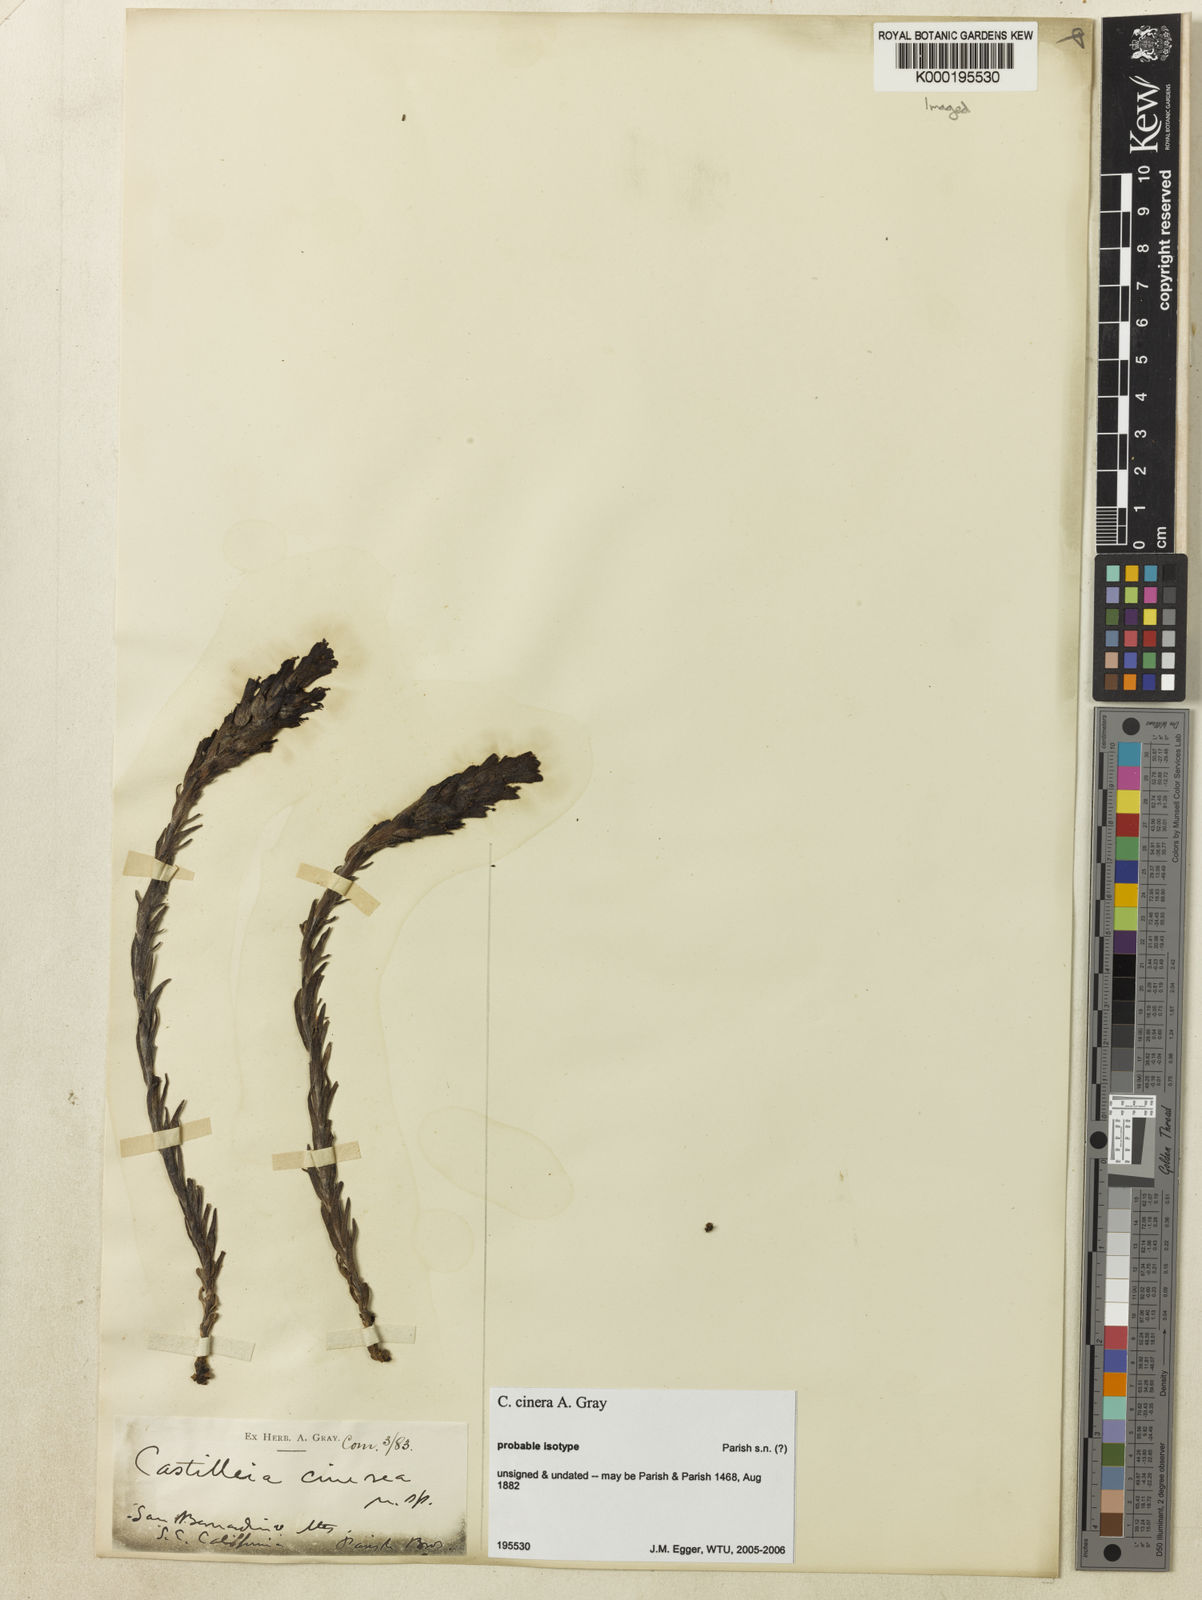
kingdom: Plantae
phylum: Tracheophyta
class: Magnoliopsida
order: Lamiales
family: Orobanchaceae
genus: Castilleja
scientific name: Castilleja cinerea
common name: Ash-gray indian paintbrush
